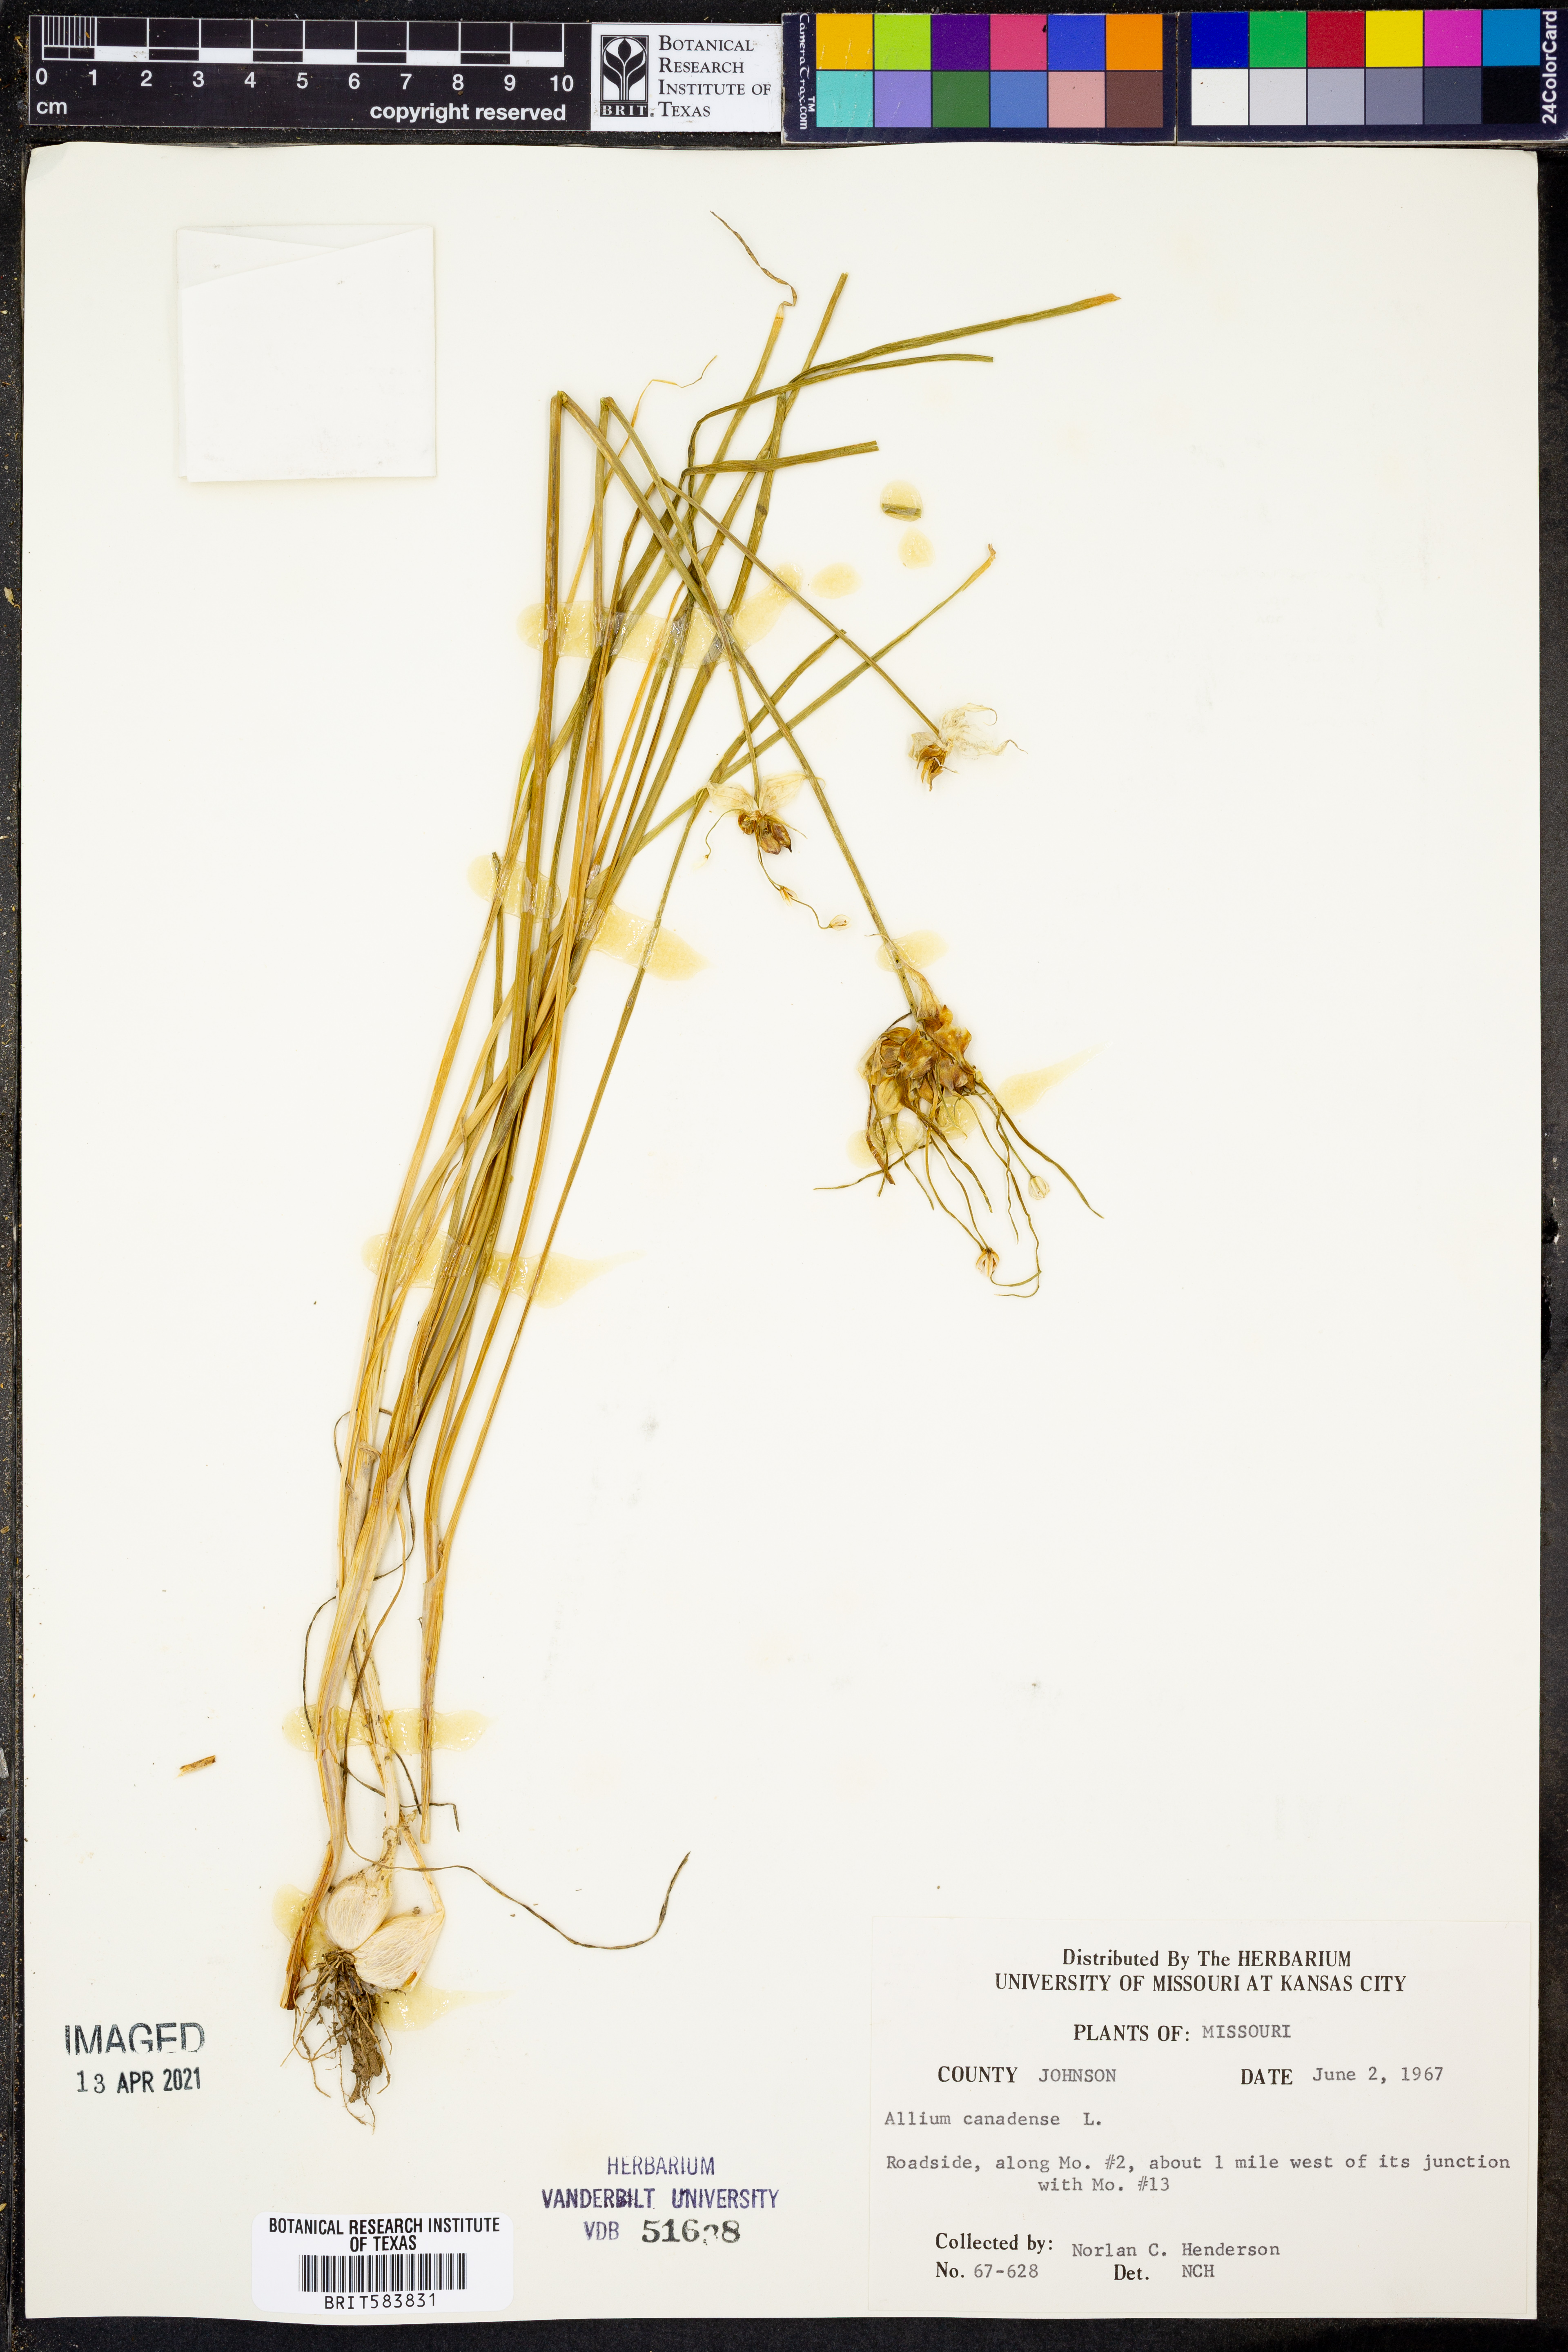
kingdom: Plantae
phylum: Tracheophyta
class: Liliopsida
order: Asparagales
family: Amaryllidaceae
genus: Allium
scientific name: Allium canadense
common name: Meadow garlic
